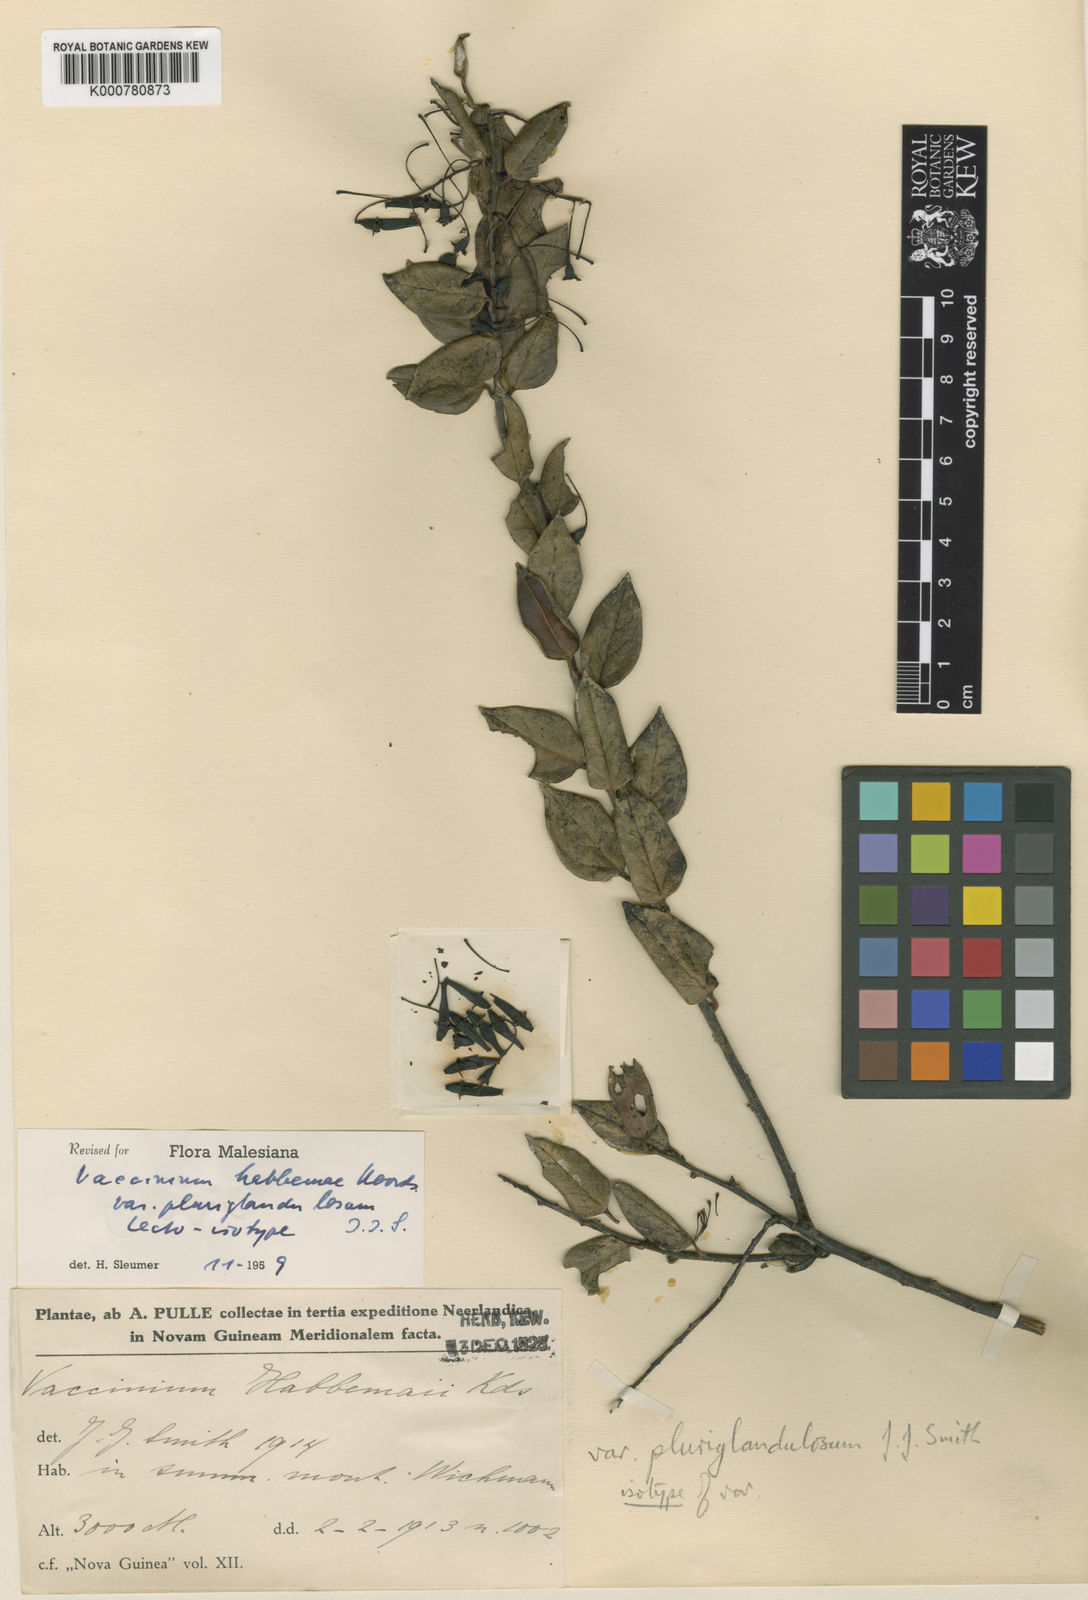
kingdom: Plantae
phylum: Tracheophyta
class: Magnoliopsida
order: Ericales
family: Ericaceae
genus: Vaccinium
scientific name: Vaccinium
